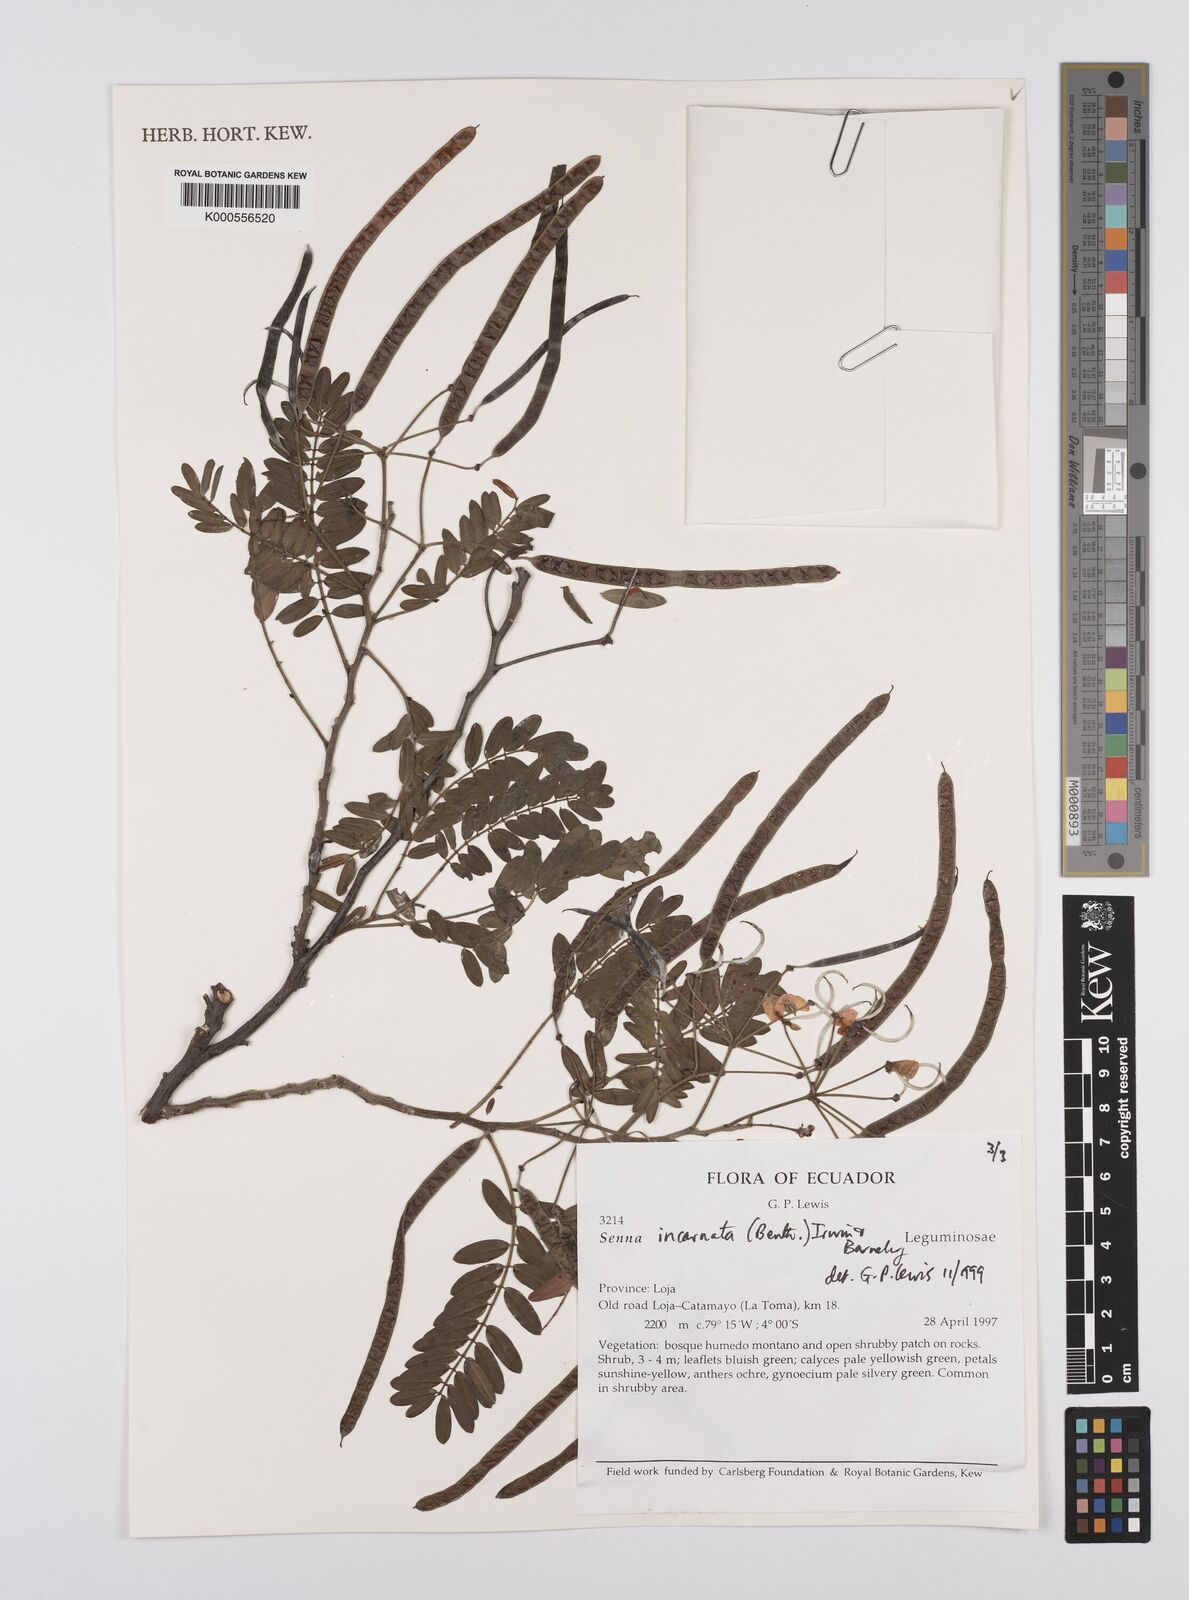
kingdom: Plantae
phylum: Tracheophyta
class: Magnoliopsida
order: Fabales
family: Fabaceae
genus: Senna
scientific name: Senna incarnata
